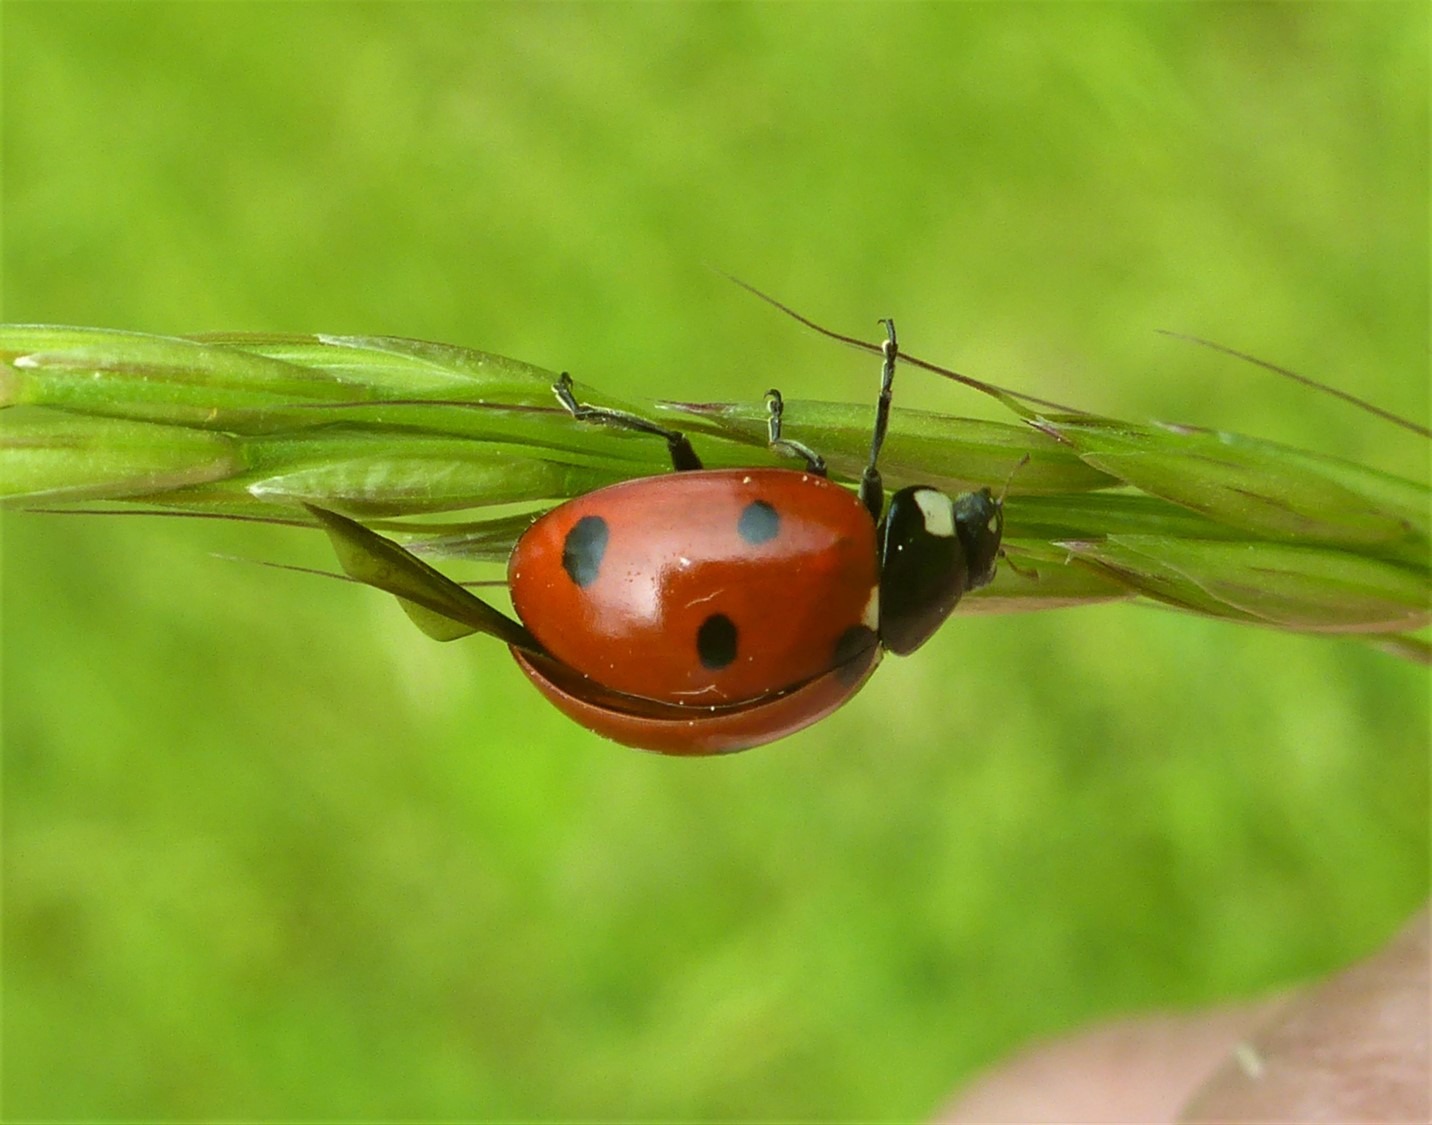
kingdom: Animalia
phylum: Arthropoda
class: Insecta
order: Coleoptera
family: Coccinellidae
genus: Coccinella
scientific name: Coccinella septempunctata
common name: Syvplettet mariehøne
